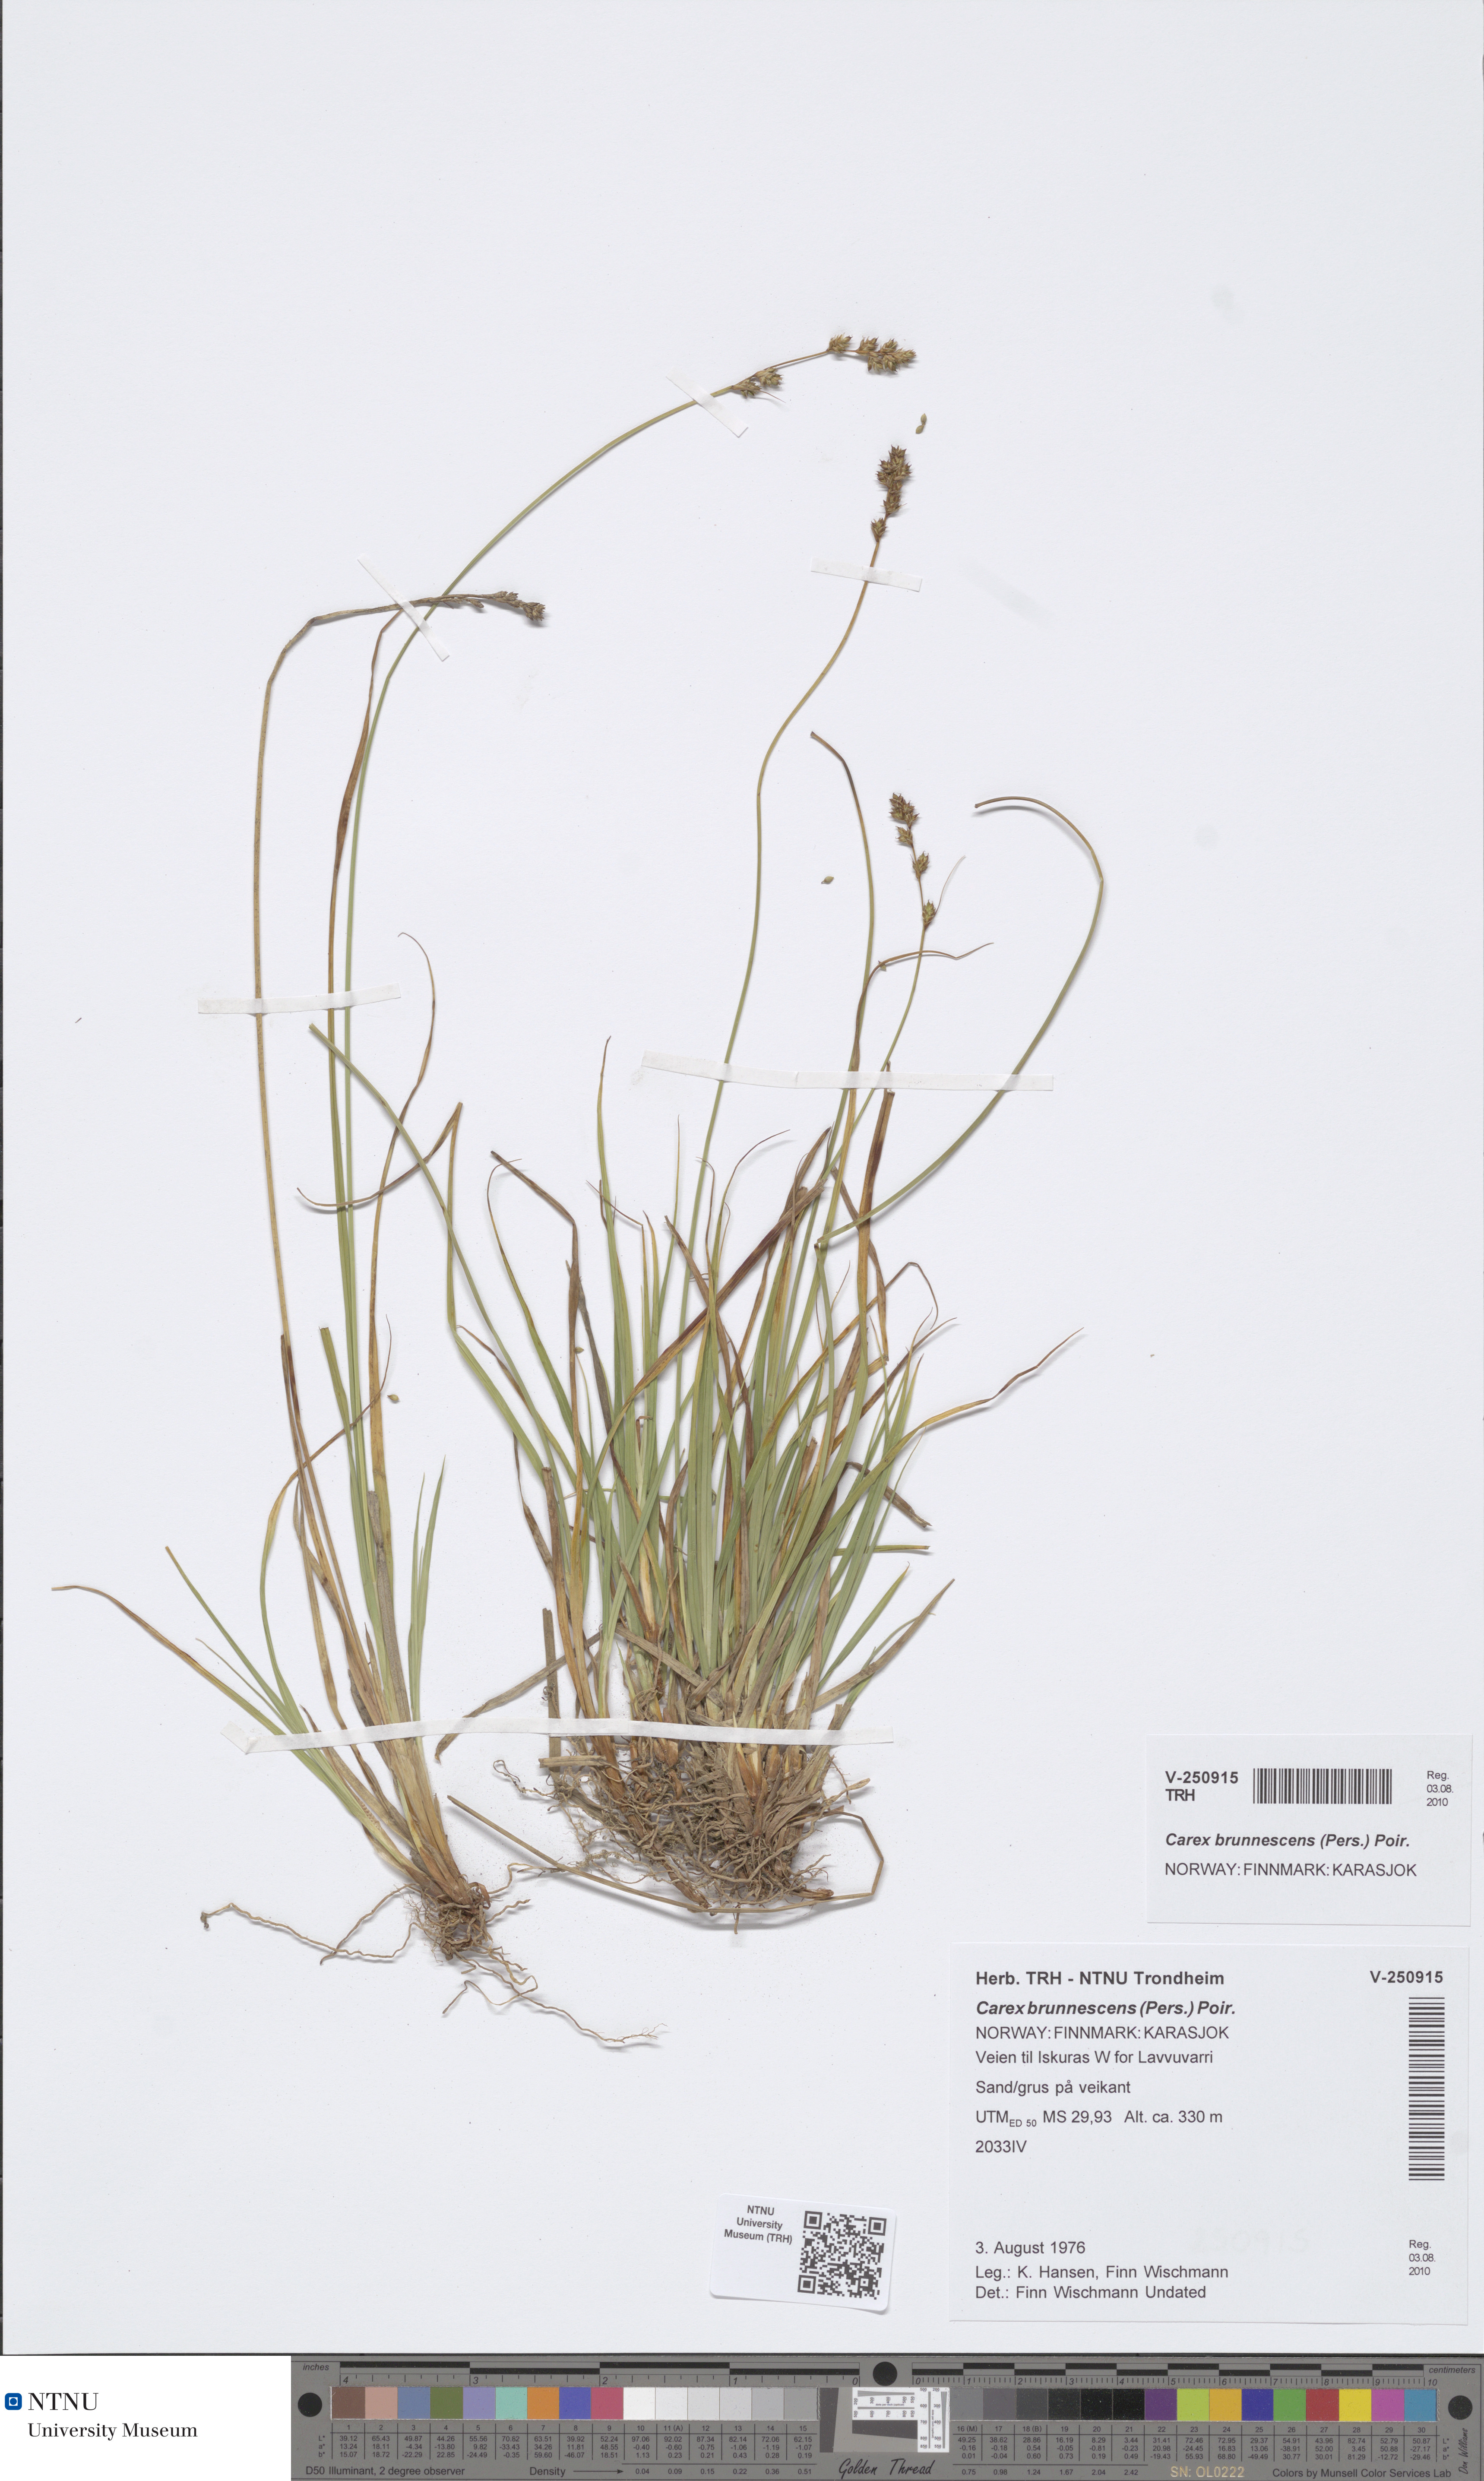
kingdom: Plantae
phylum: Tracheophyta
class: Liliopsida
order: Poales
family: Cyperaceae
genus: Carex
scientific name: Carex brunnescens
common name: Brown sedge
